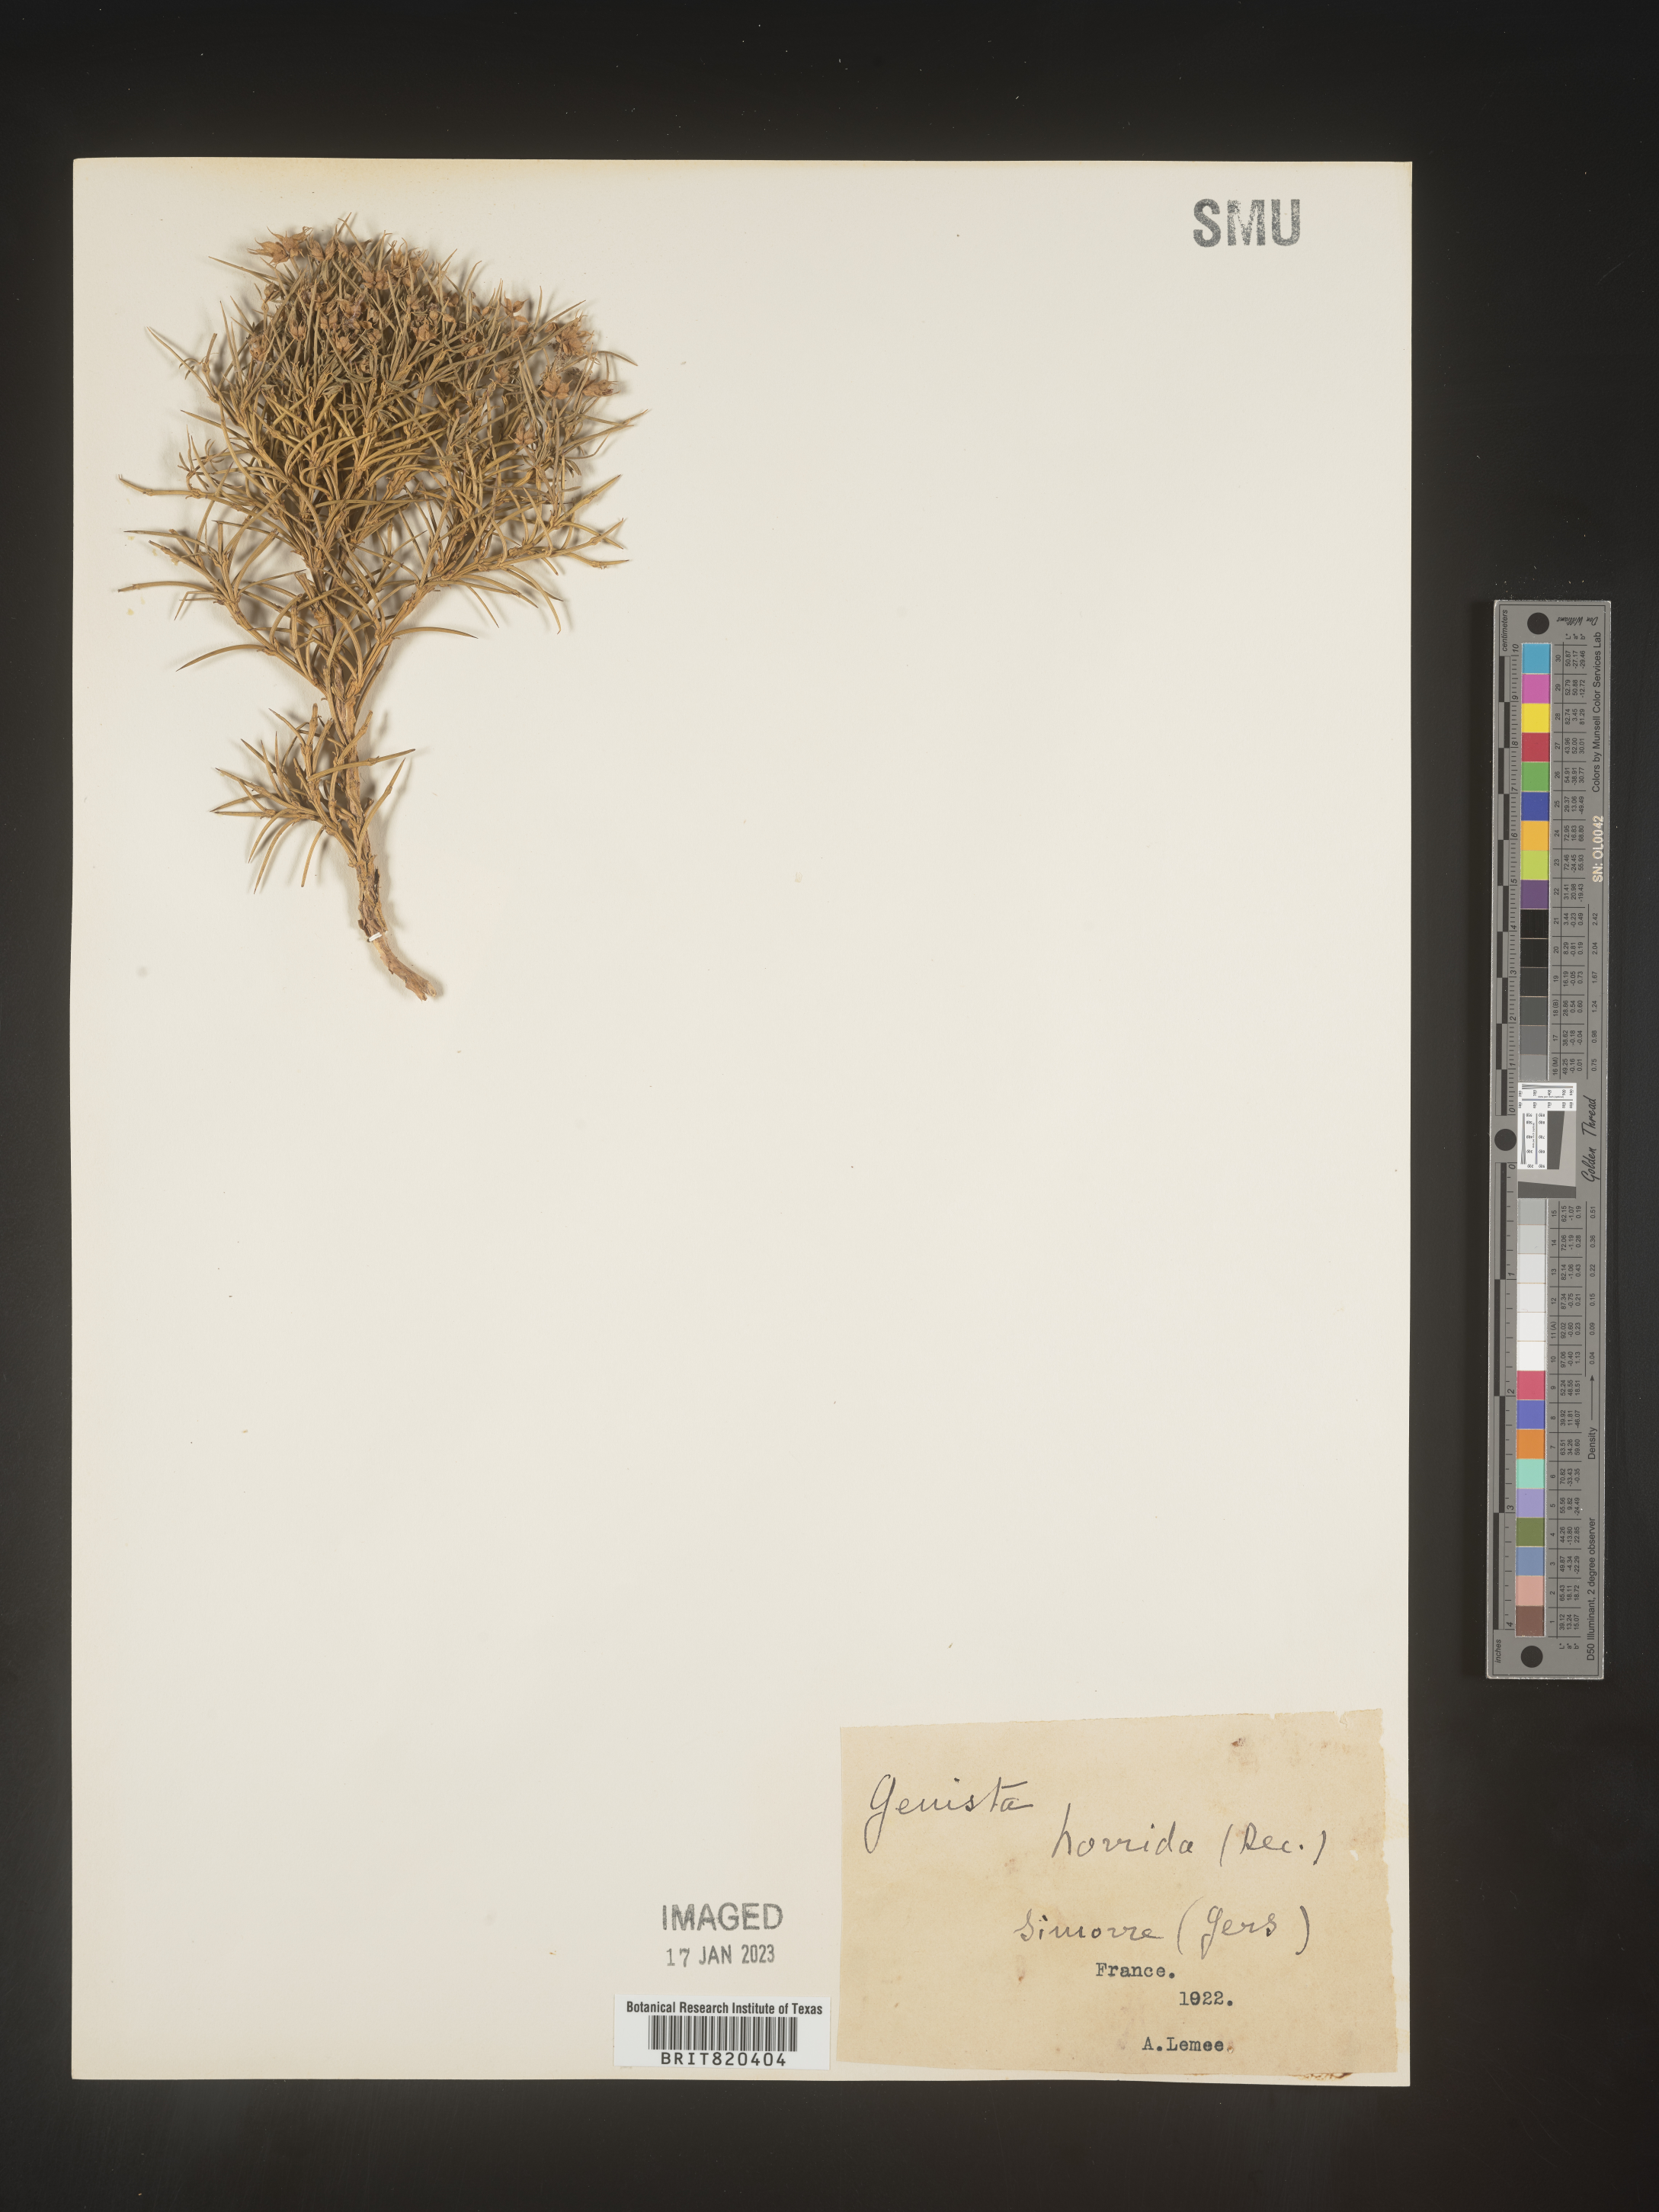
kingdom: Plantae
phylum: Tracheophyta
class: Magnoliopsida
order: Fabales
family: Fabaceae
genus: Genista
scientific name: Genista
